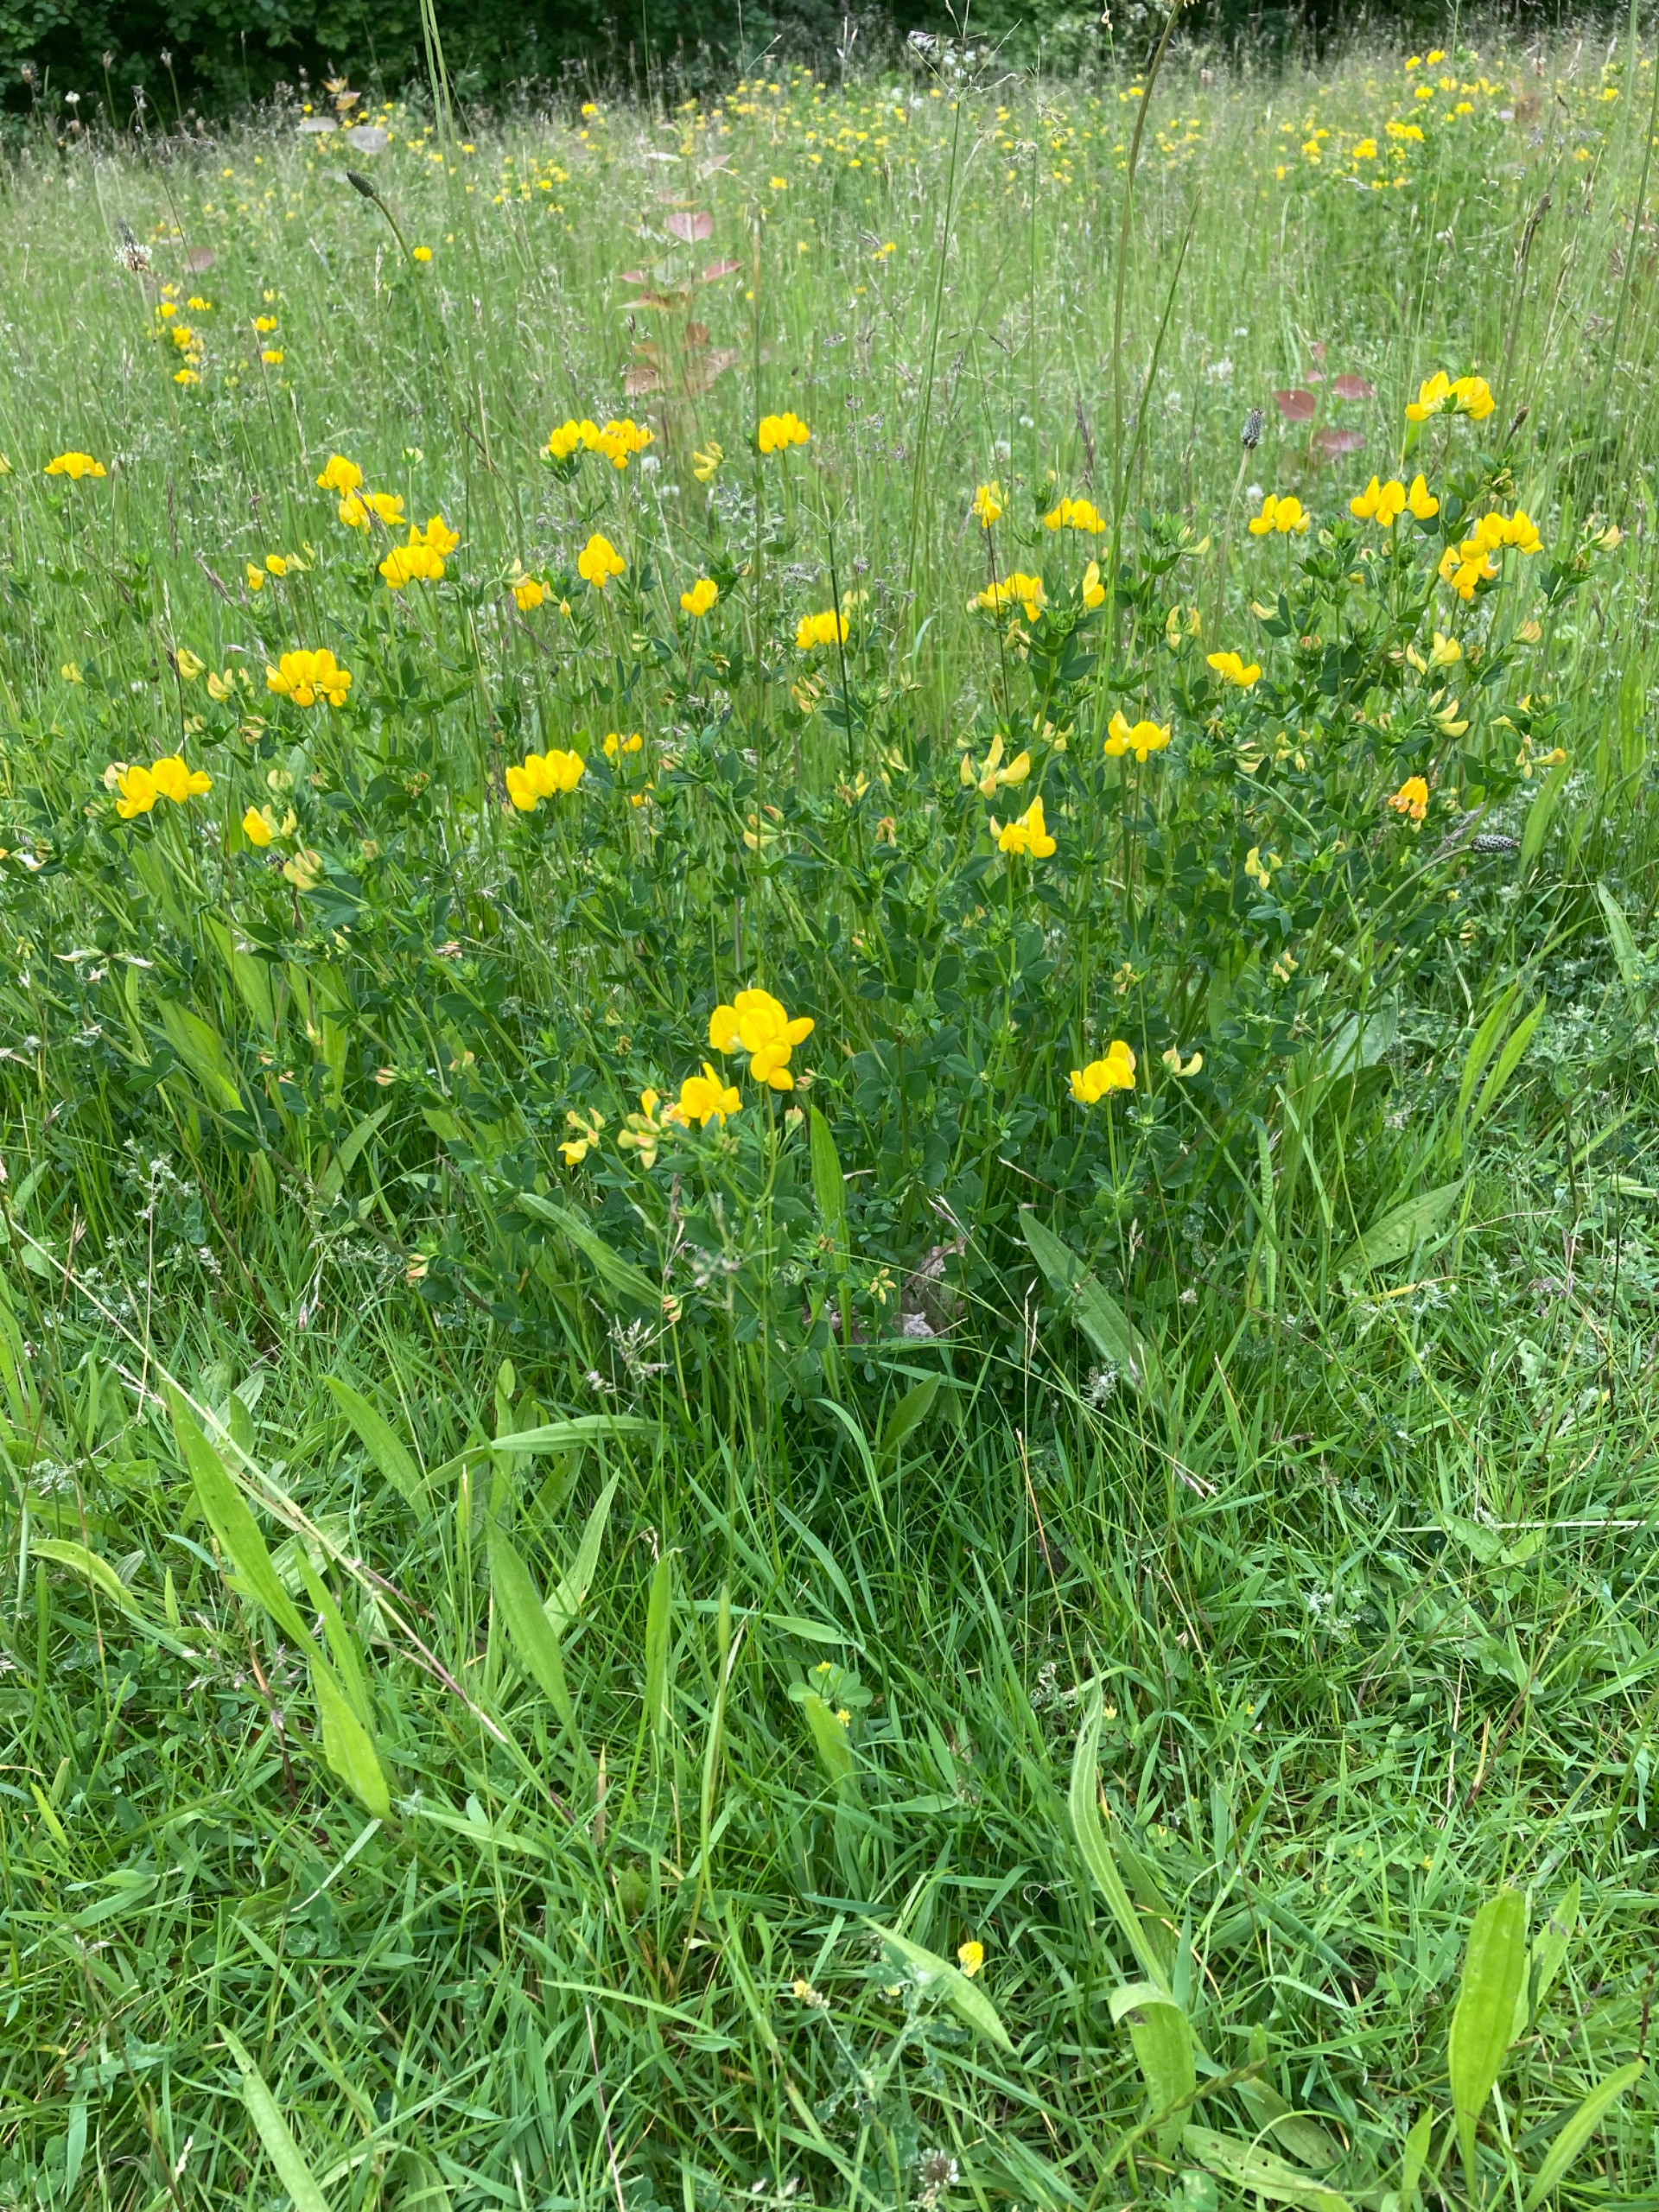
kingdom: Plantae
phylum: Tracheophyta
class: Magnoliopsida
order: Fabales
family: Fabaceae
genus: Lotus
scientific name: Lotus corniculatus
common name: Almindelig kællingetand
